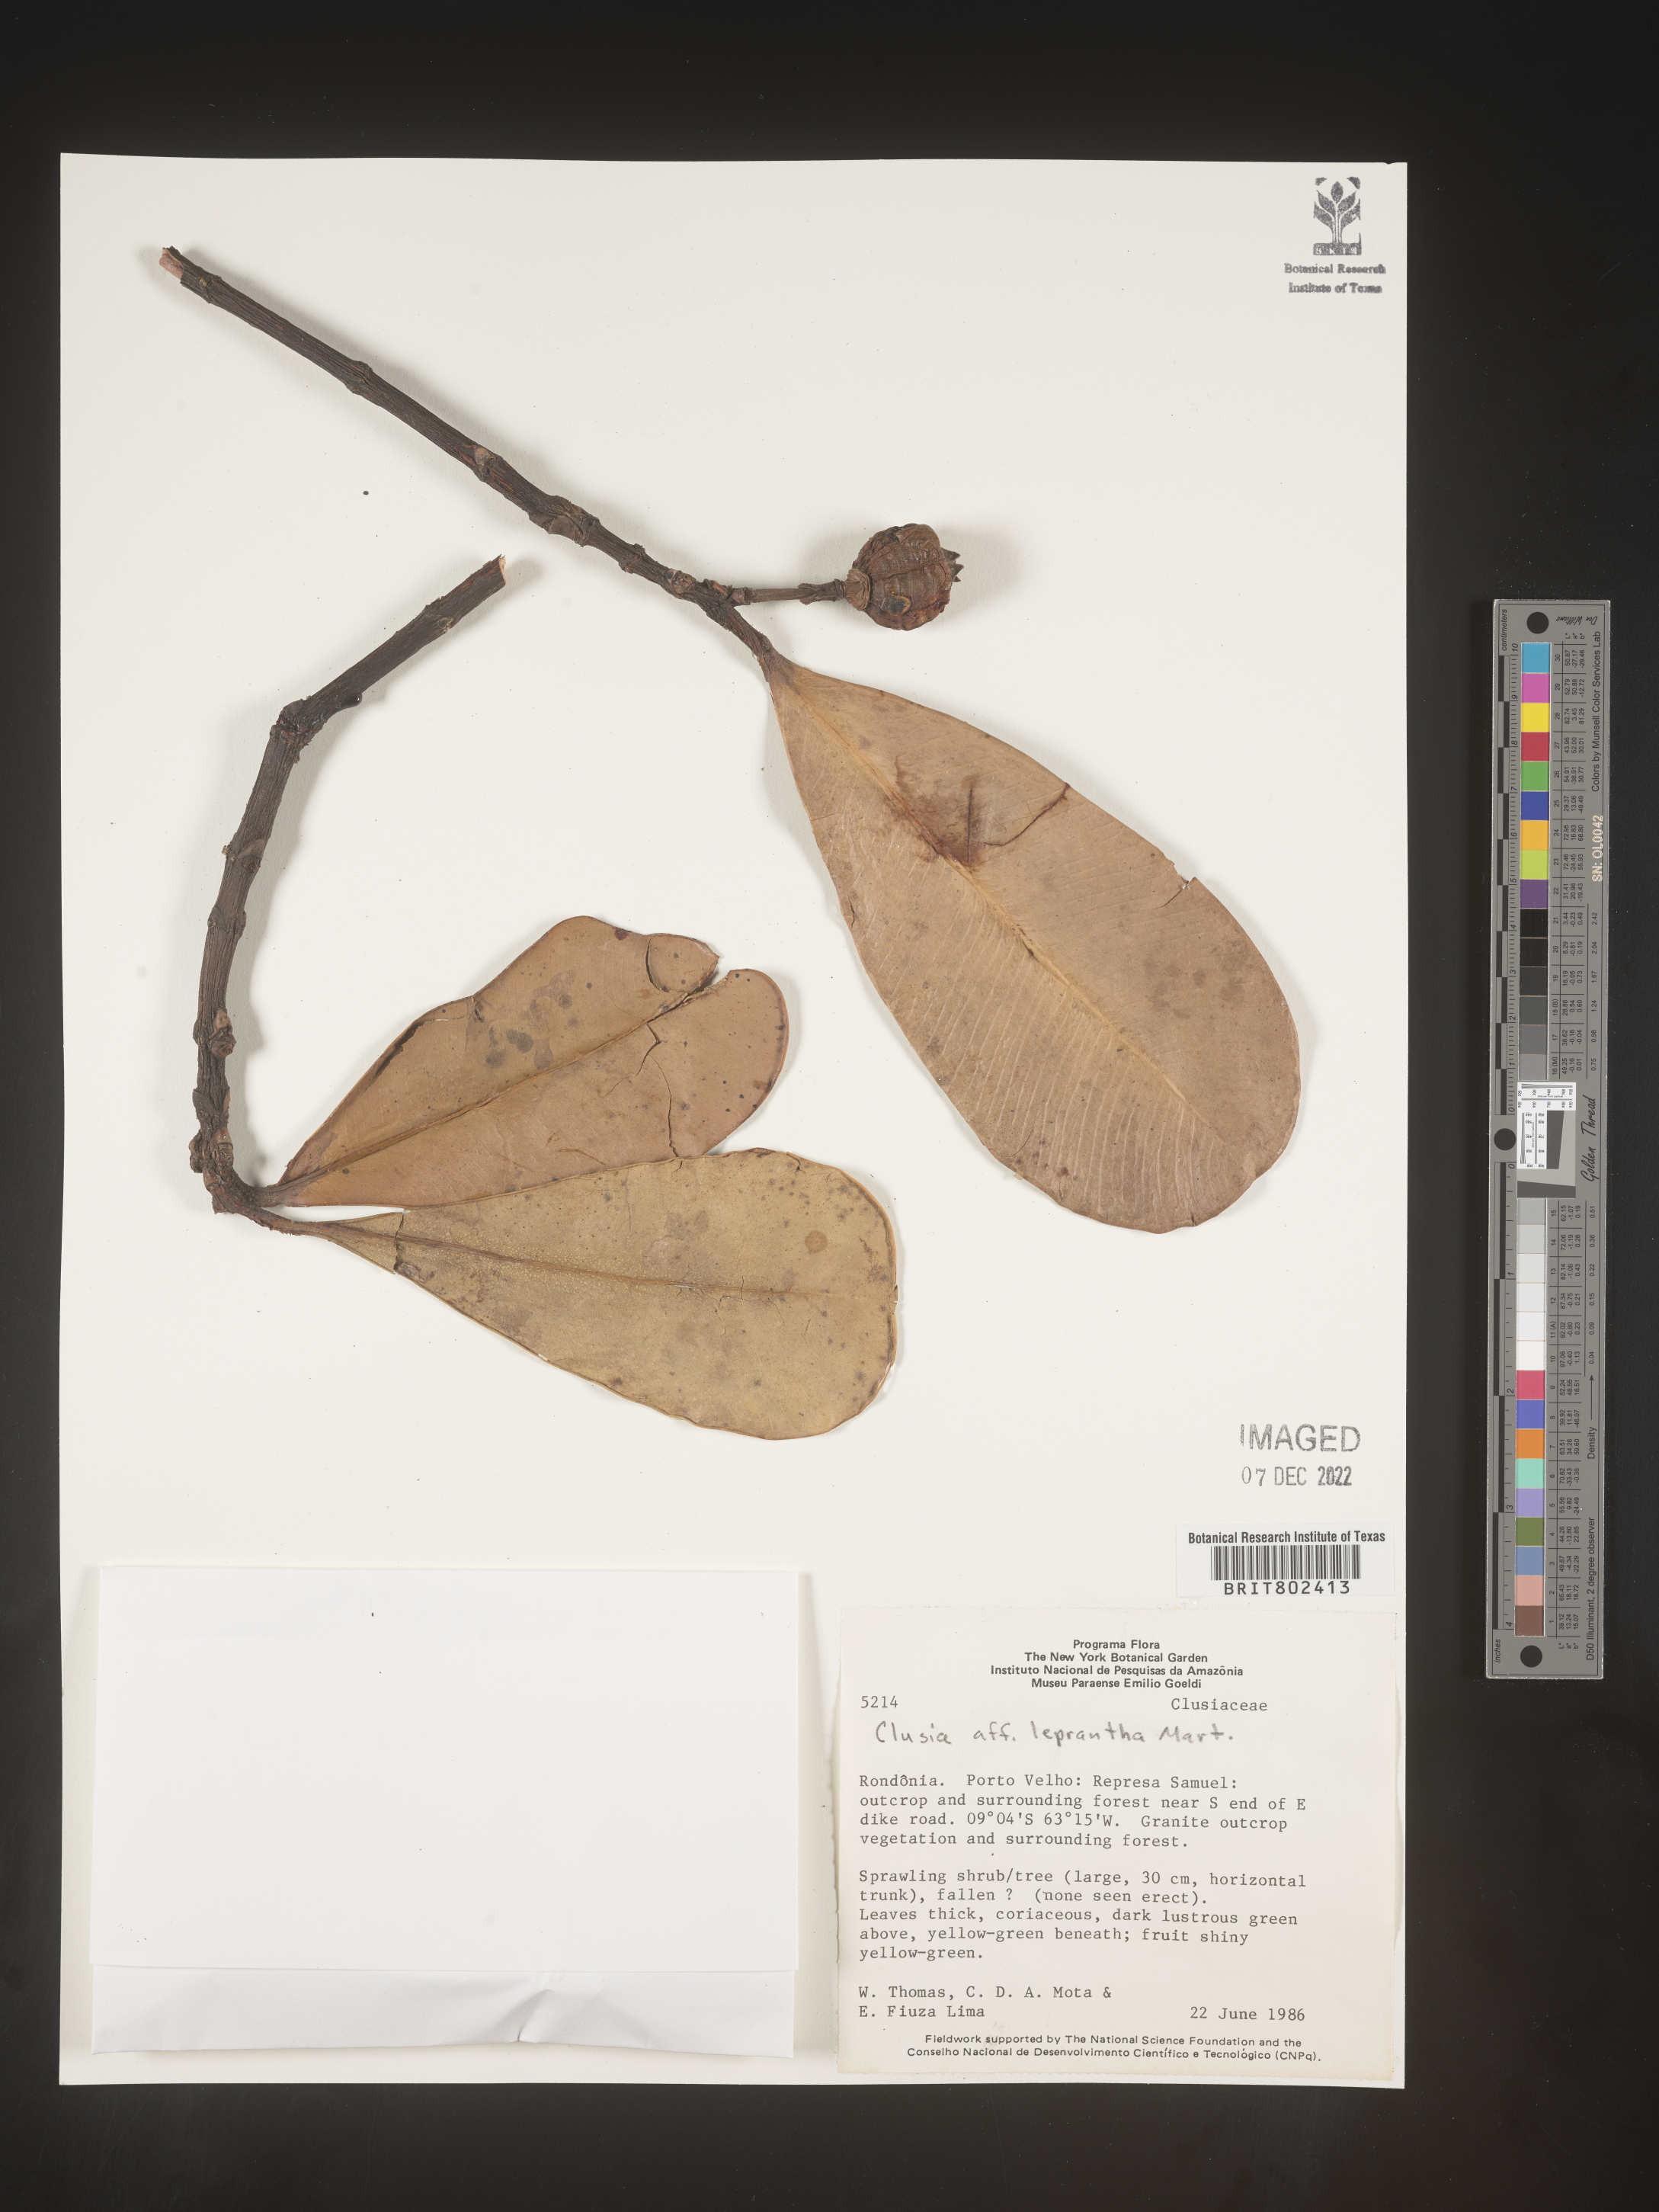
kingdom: Plantae
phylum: Tracheophyta
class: Magnoliopsida
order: Malpighiales
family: Clusiaceae
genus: Clusia
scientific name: Clusia
